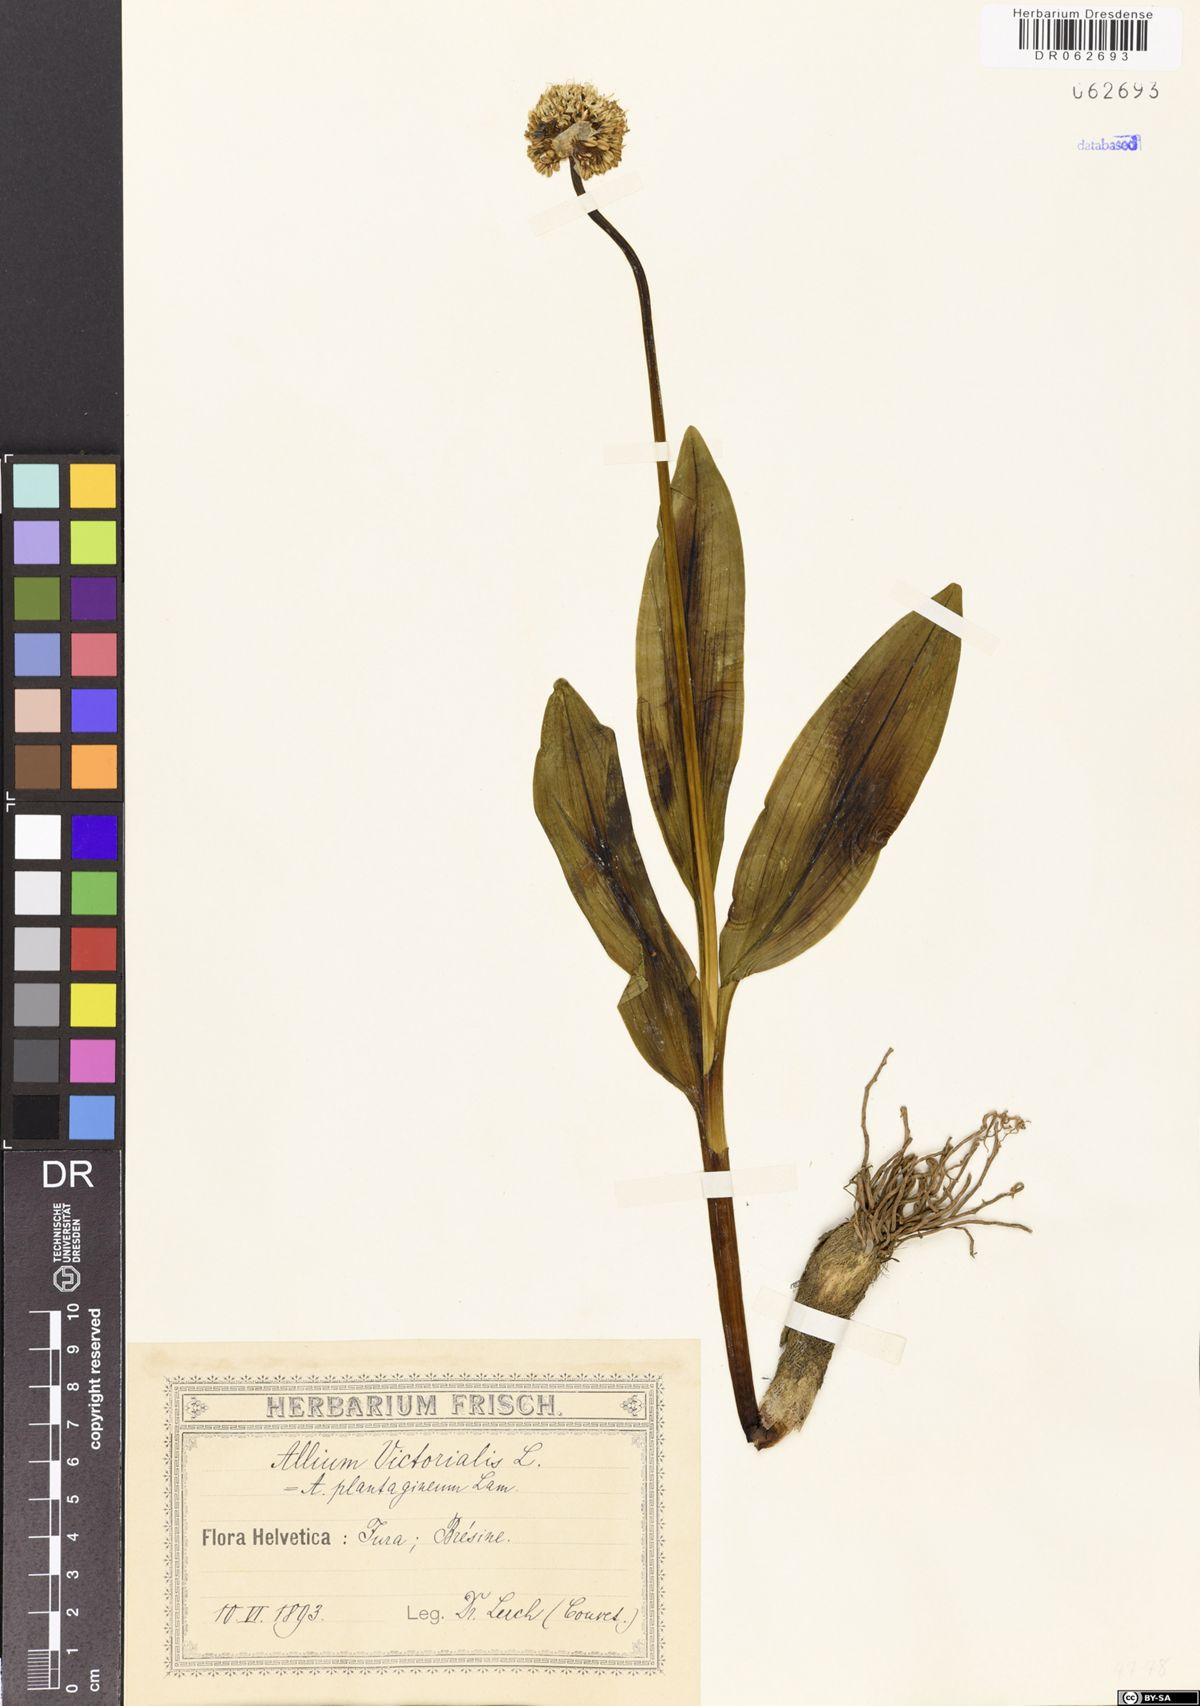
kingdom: Plantae
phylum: Tracheophyta
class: Liliopsida
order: Asparagales
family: Amaryllidaceae
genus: Allium
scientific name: Allium victorialis
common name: Alpine leek
